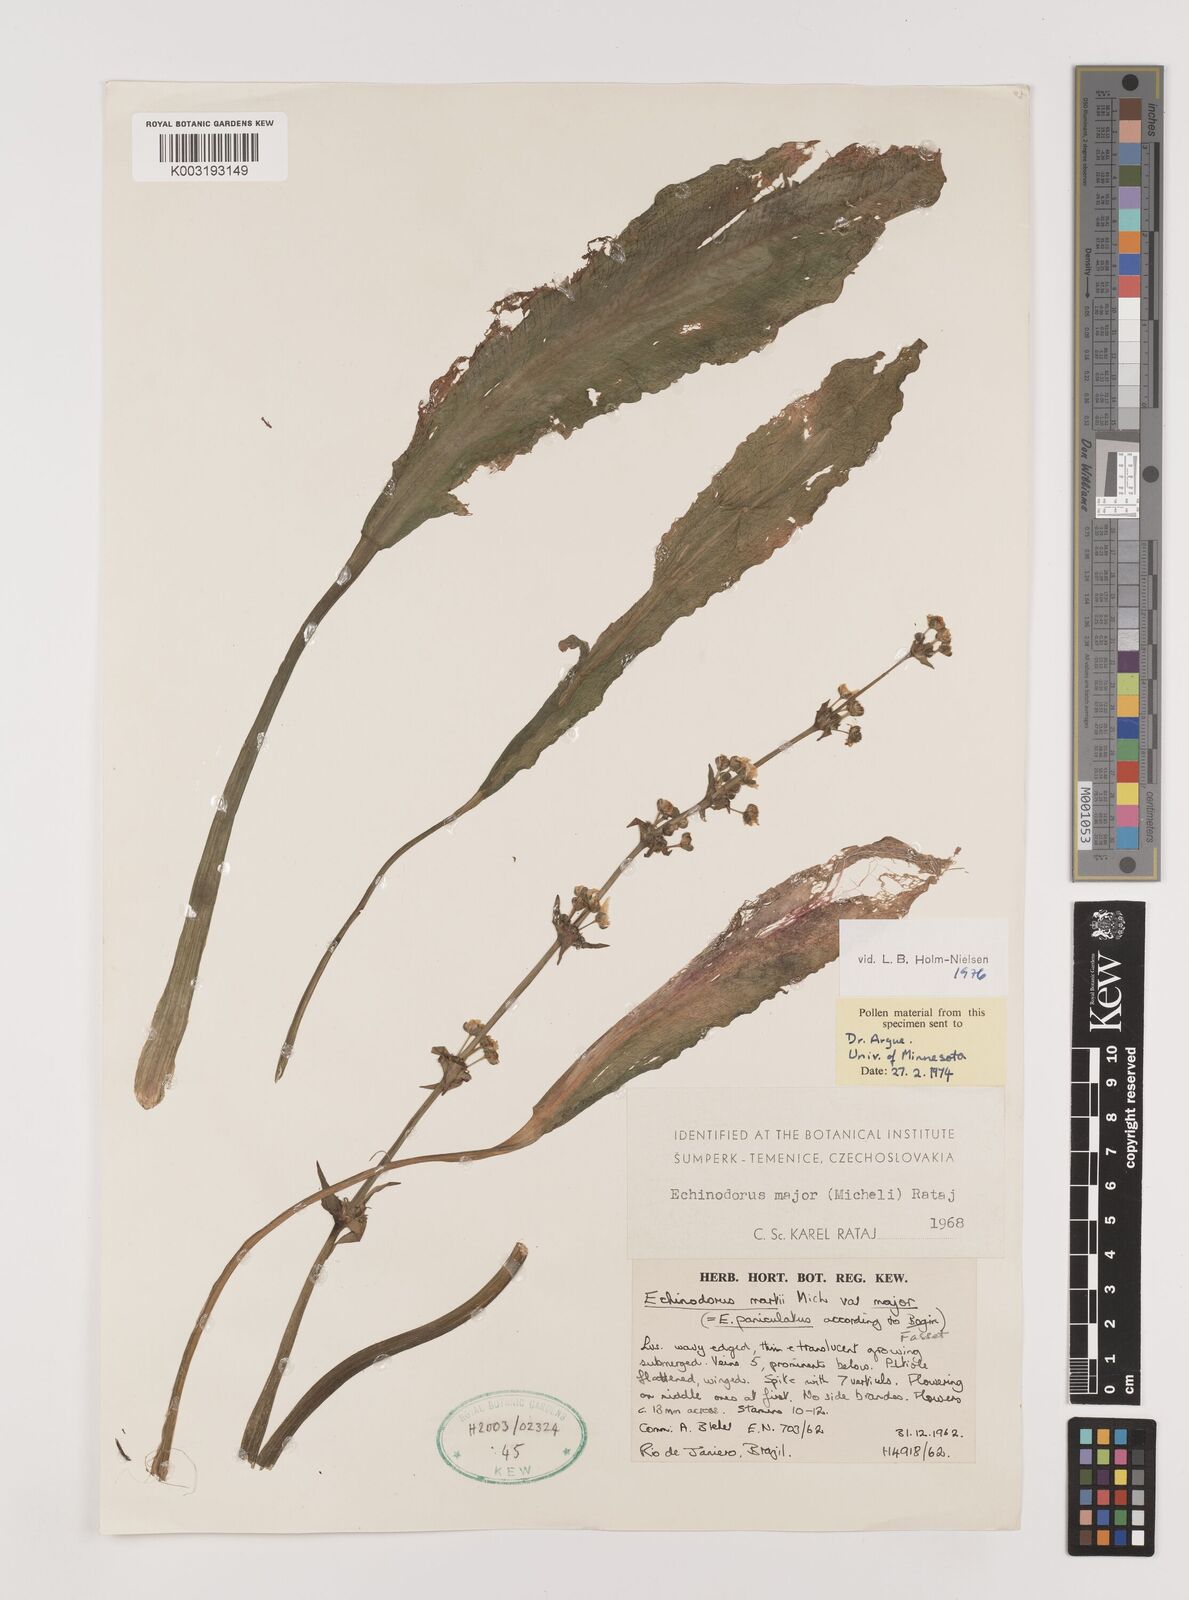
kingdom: Plantae
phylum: Tracheophyta
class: Liliopsida
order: Alismatales
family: Alismataceae
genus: Aquarius
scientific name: Aquarius major
